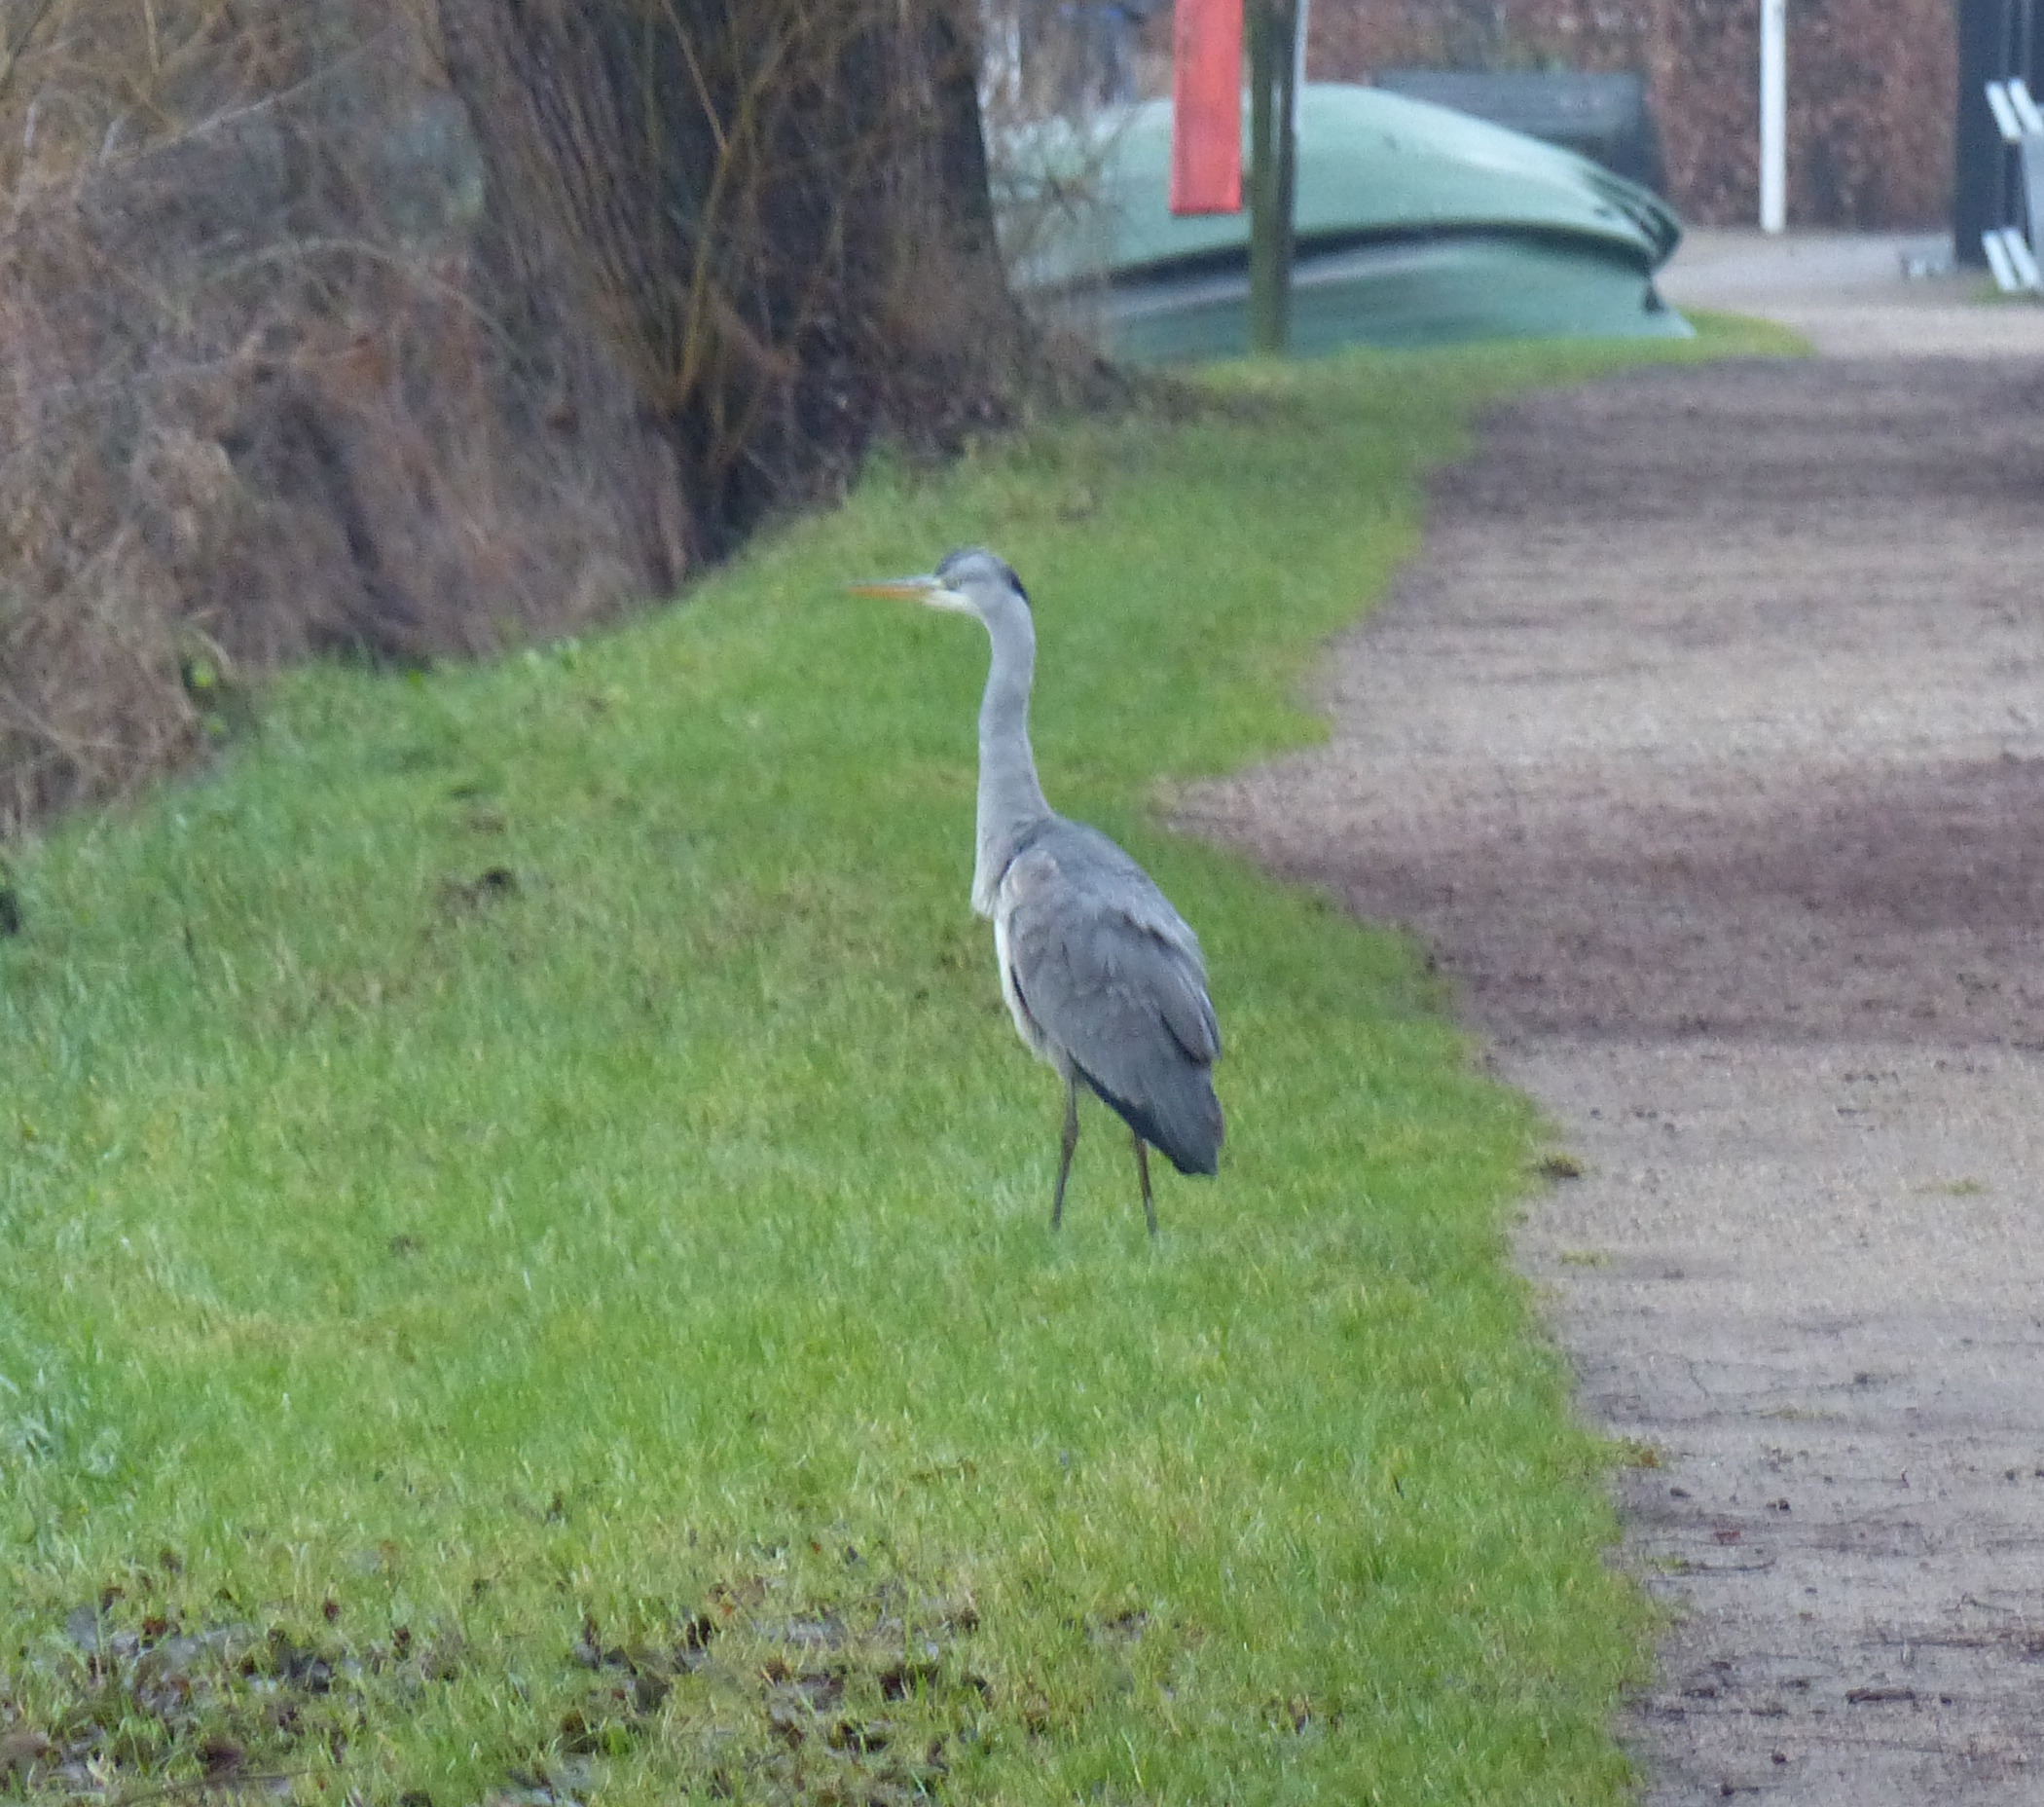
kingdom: Animalia
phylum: Chordata
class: Aves
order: Pelecaniformes
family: Ardeidae
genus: Ardea
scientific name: Ardea cinerea
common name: Fiskehejre
